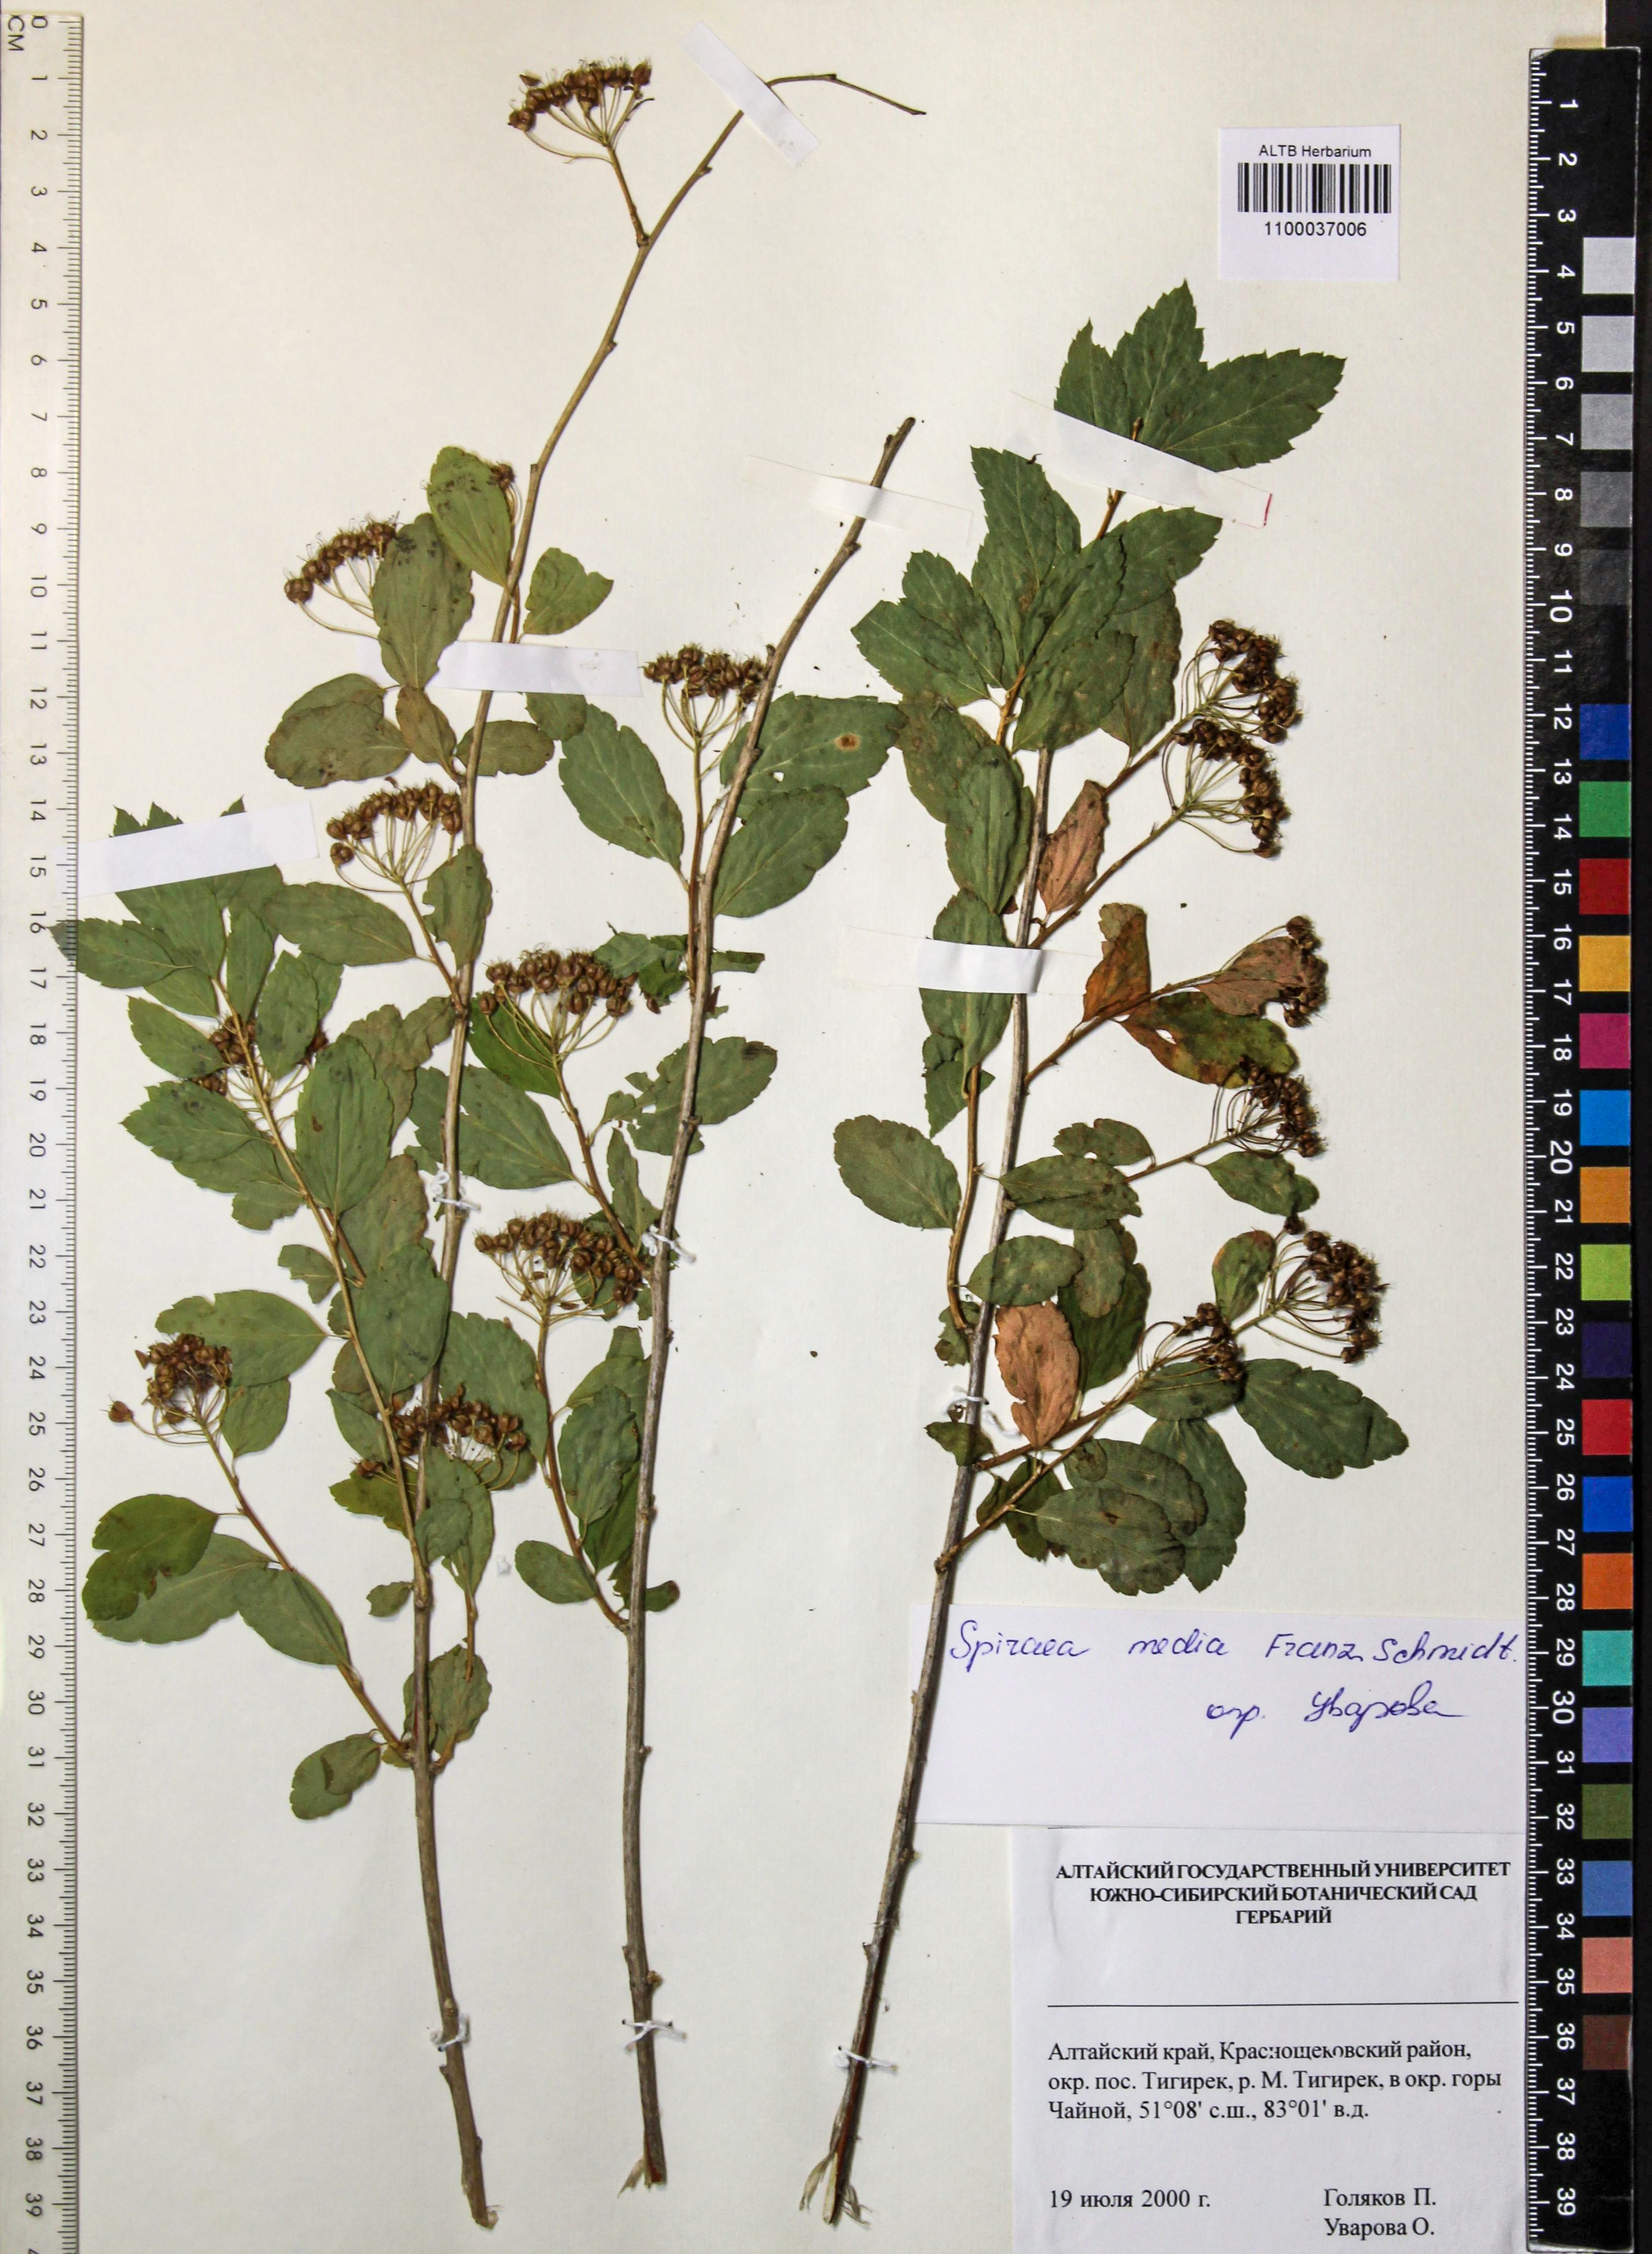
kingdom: Plantae
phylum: Tracheophyta
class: Magnoliopsida
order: Rosales
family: Rosaceae
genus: Spiraea
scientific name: Spiraea media
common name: Russian spiraea
